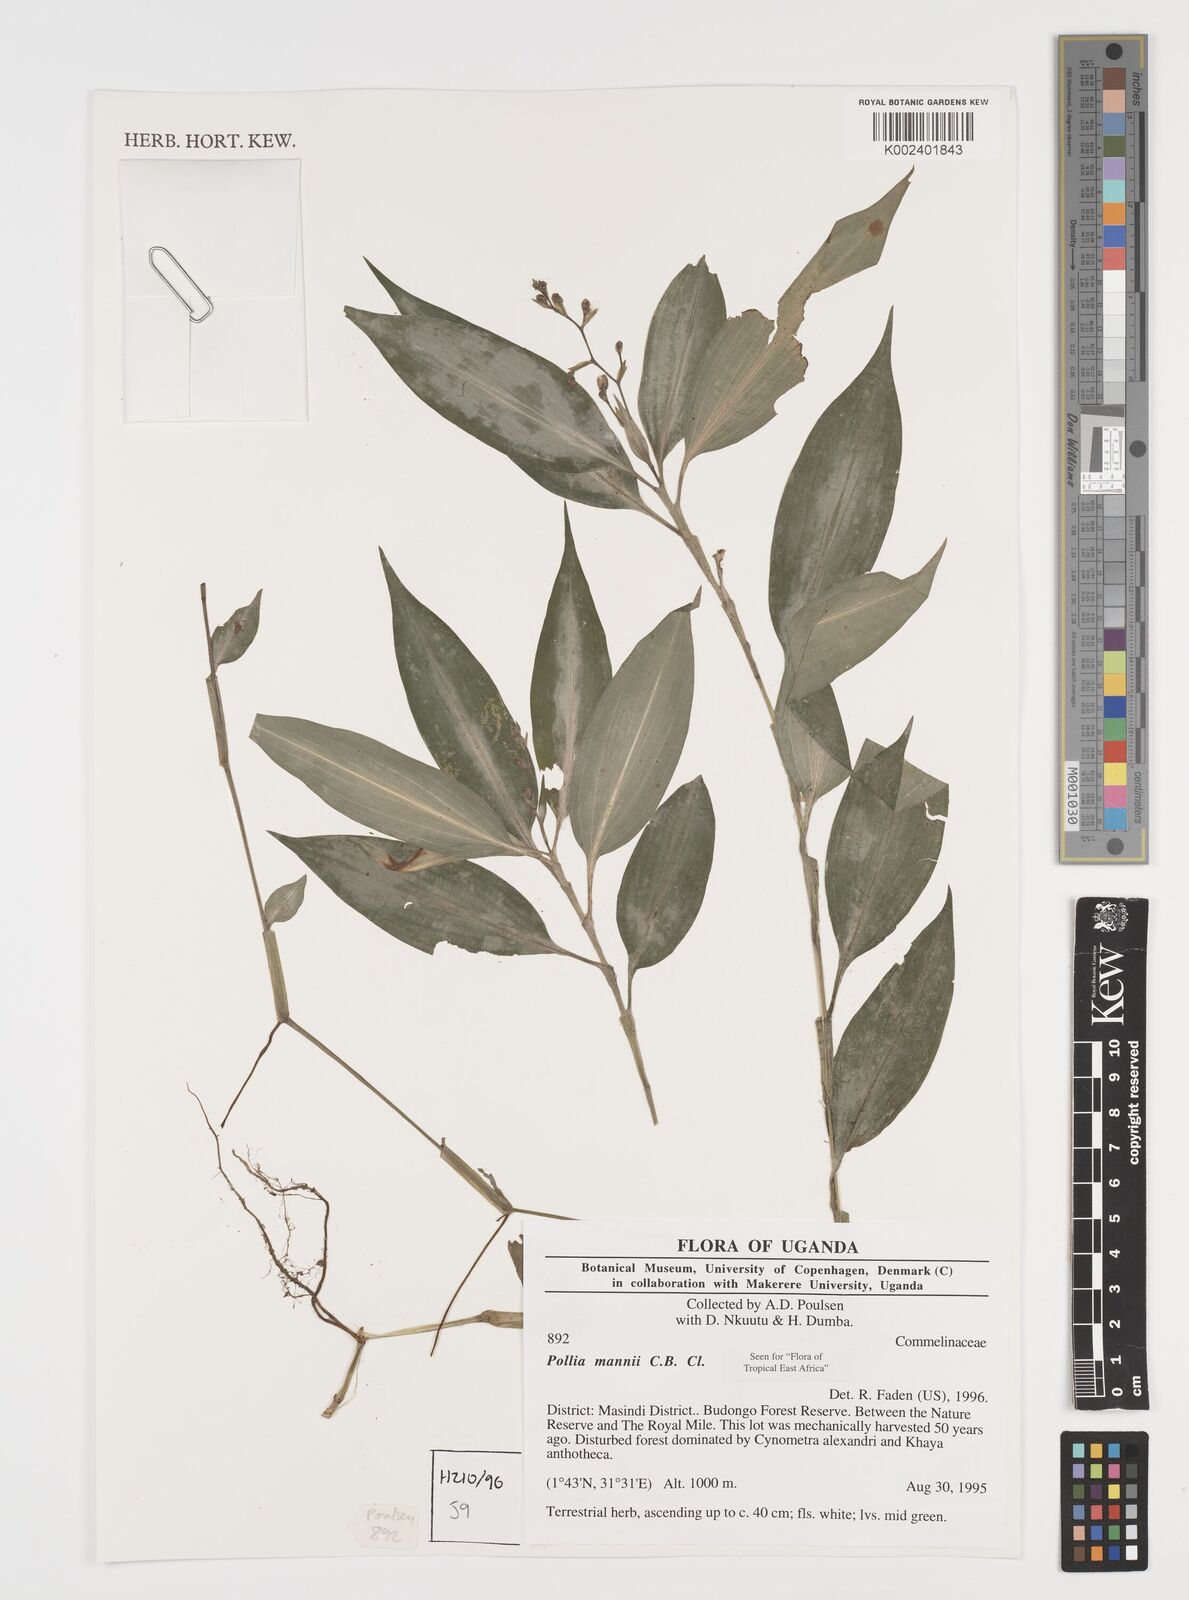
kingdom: Plantae
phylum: Tracheophyta
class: Liliopsida
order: Commelinales
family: Commelinaceae
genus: Pollia
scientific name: Pollia mannii
